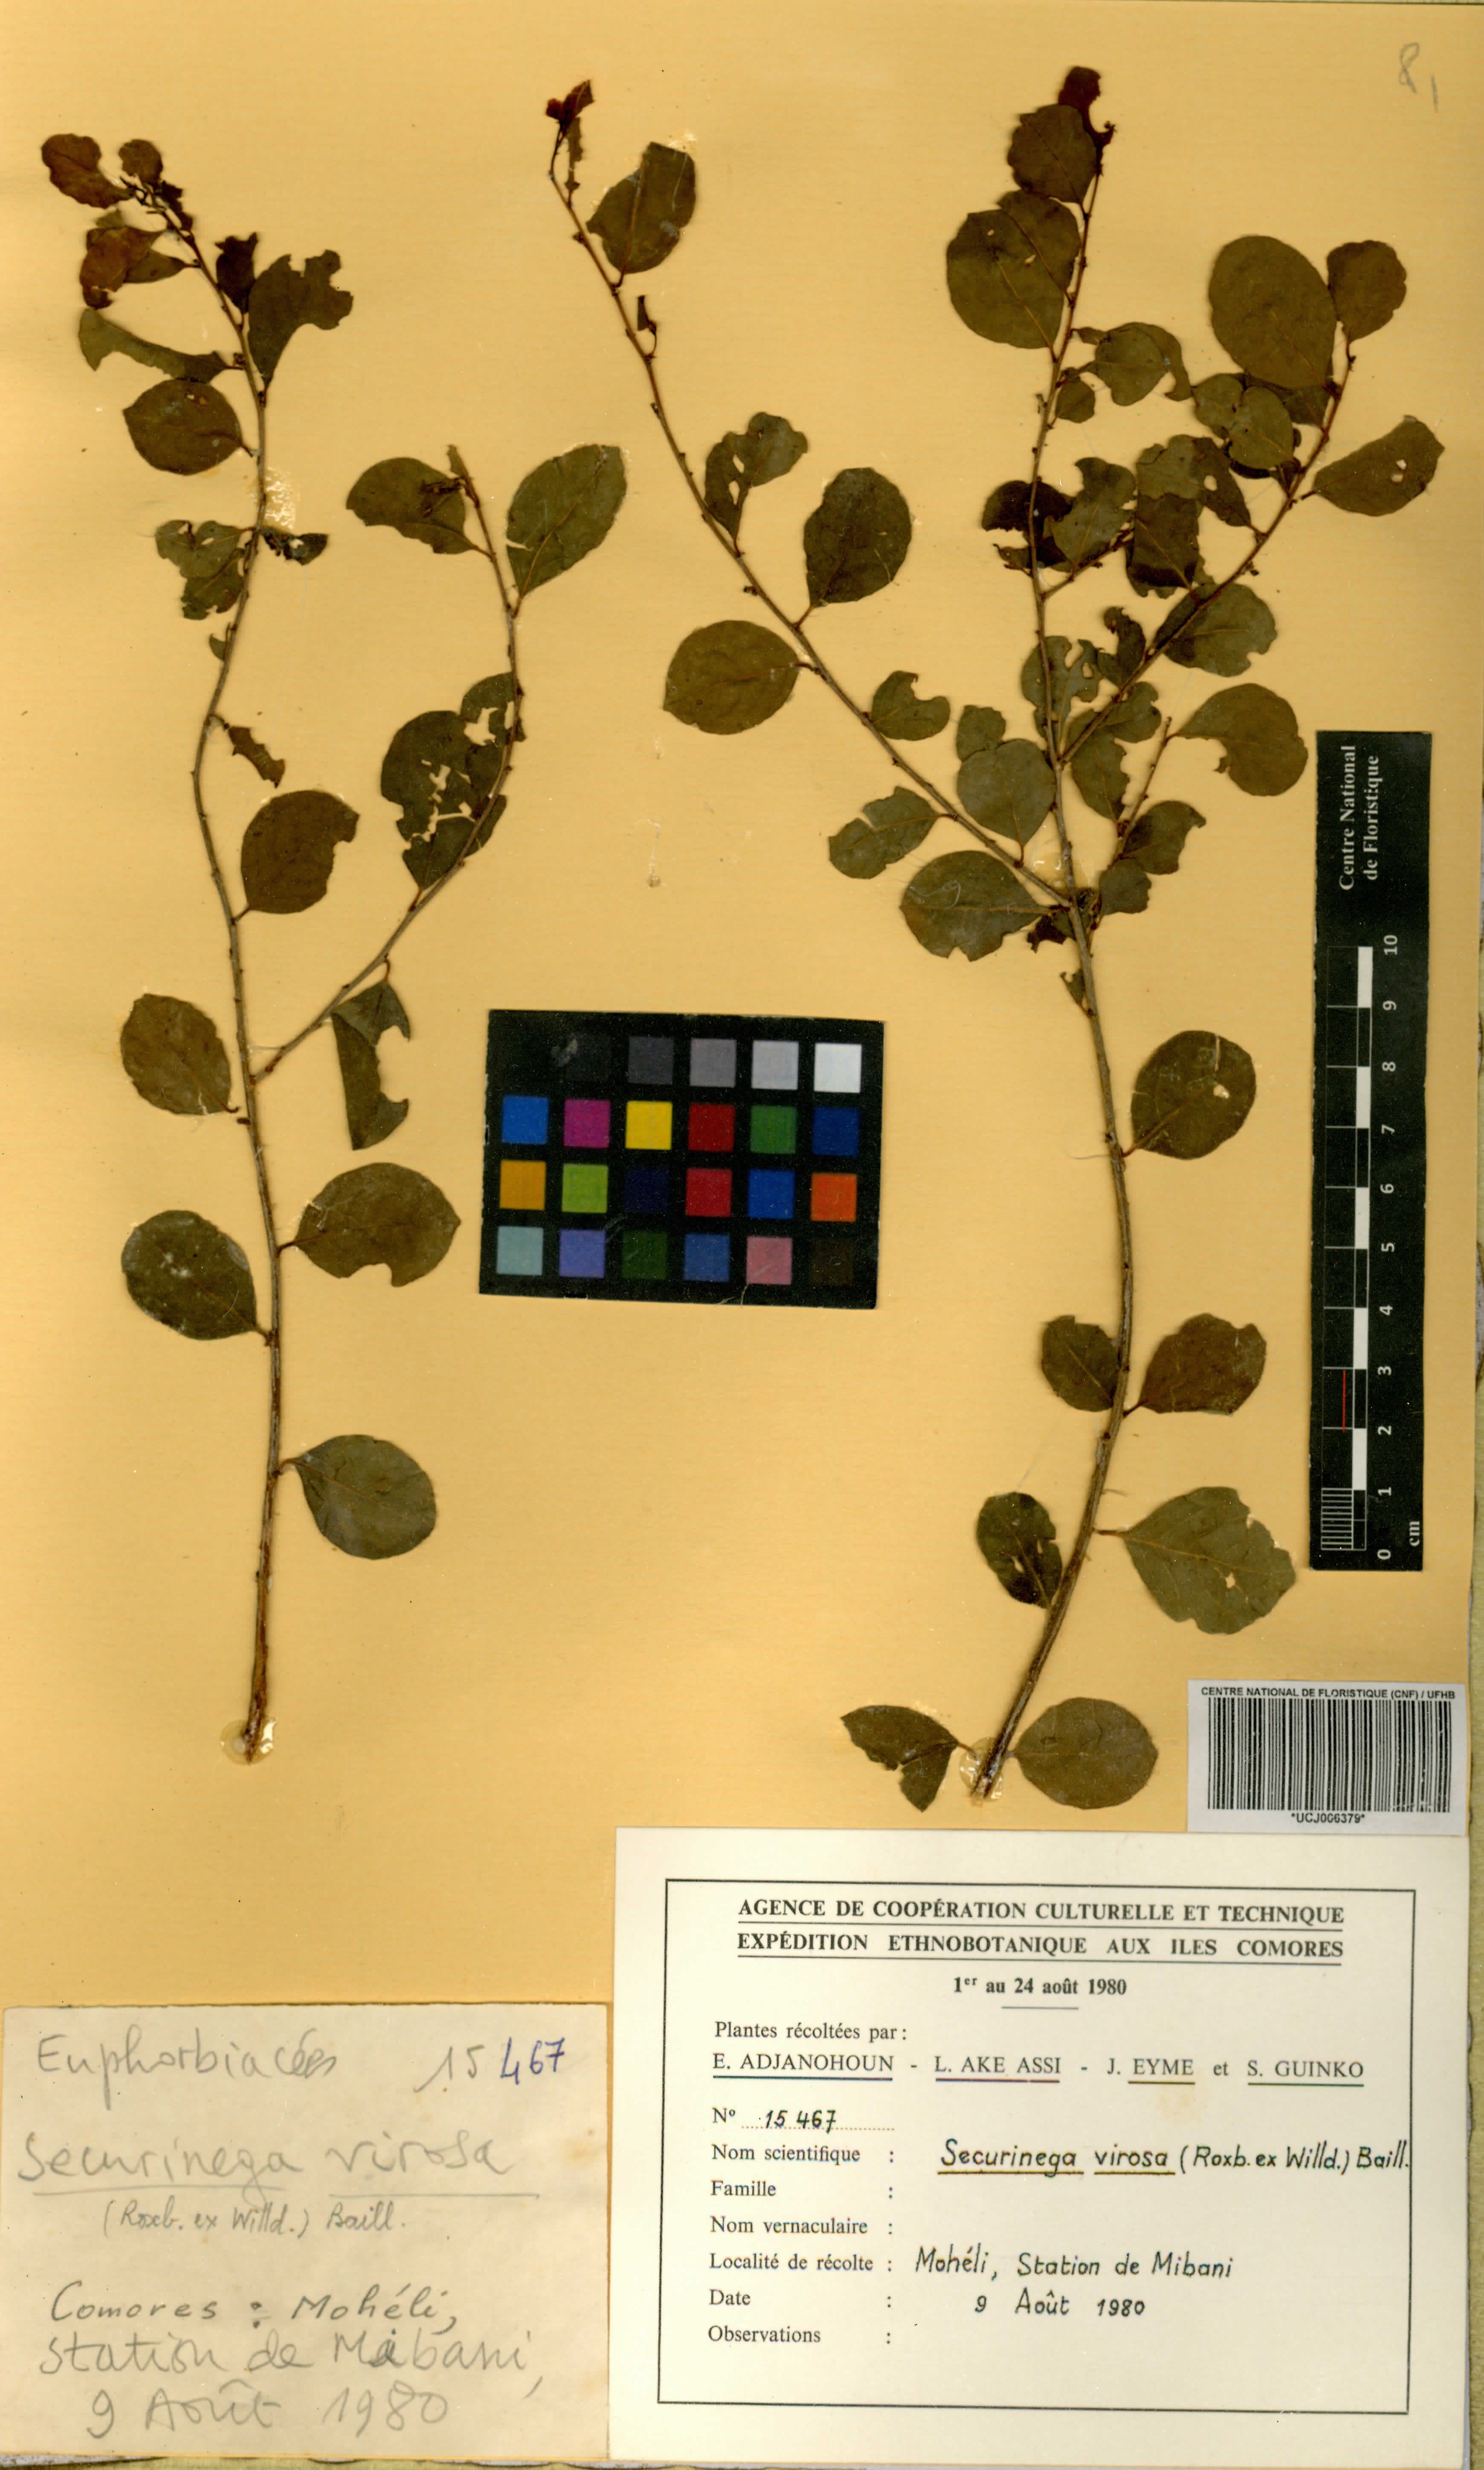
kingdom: Plantae
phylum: Tracheophyta
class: Magnoliopsida
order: Malpighiales
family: Phyllanthaceae
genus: Flueggea
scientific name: Flueggea virosa
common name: Common bushweed
